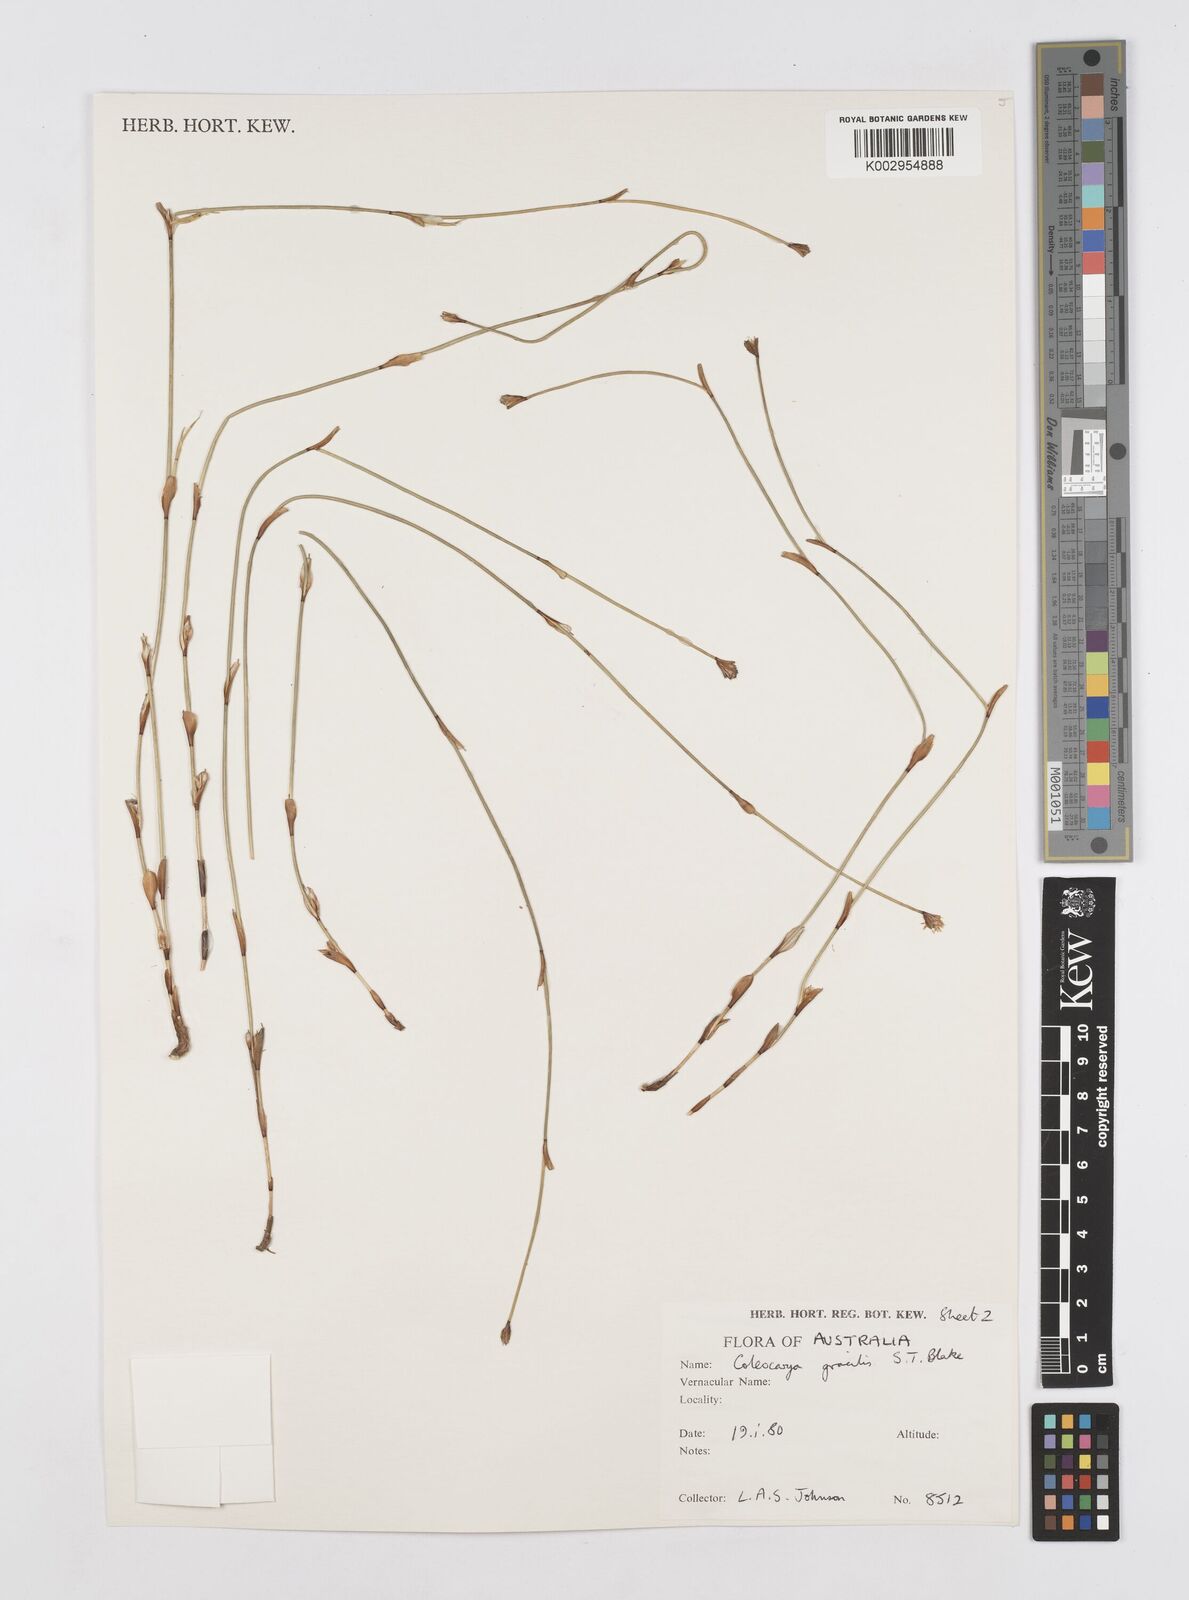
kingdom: Plantae
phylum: Tracheophyta
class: Liliopsida
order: Poales
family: Restionaceae
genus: Coleocarya
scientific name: Coleocarya gracilis
